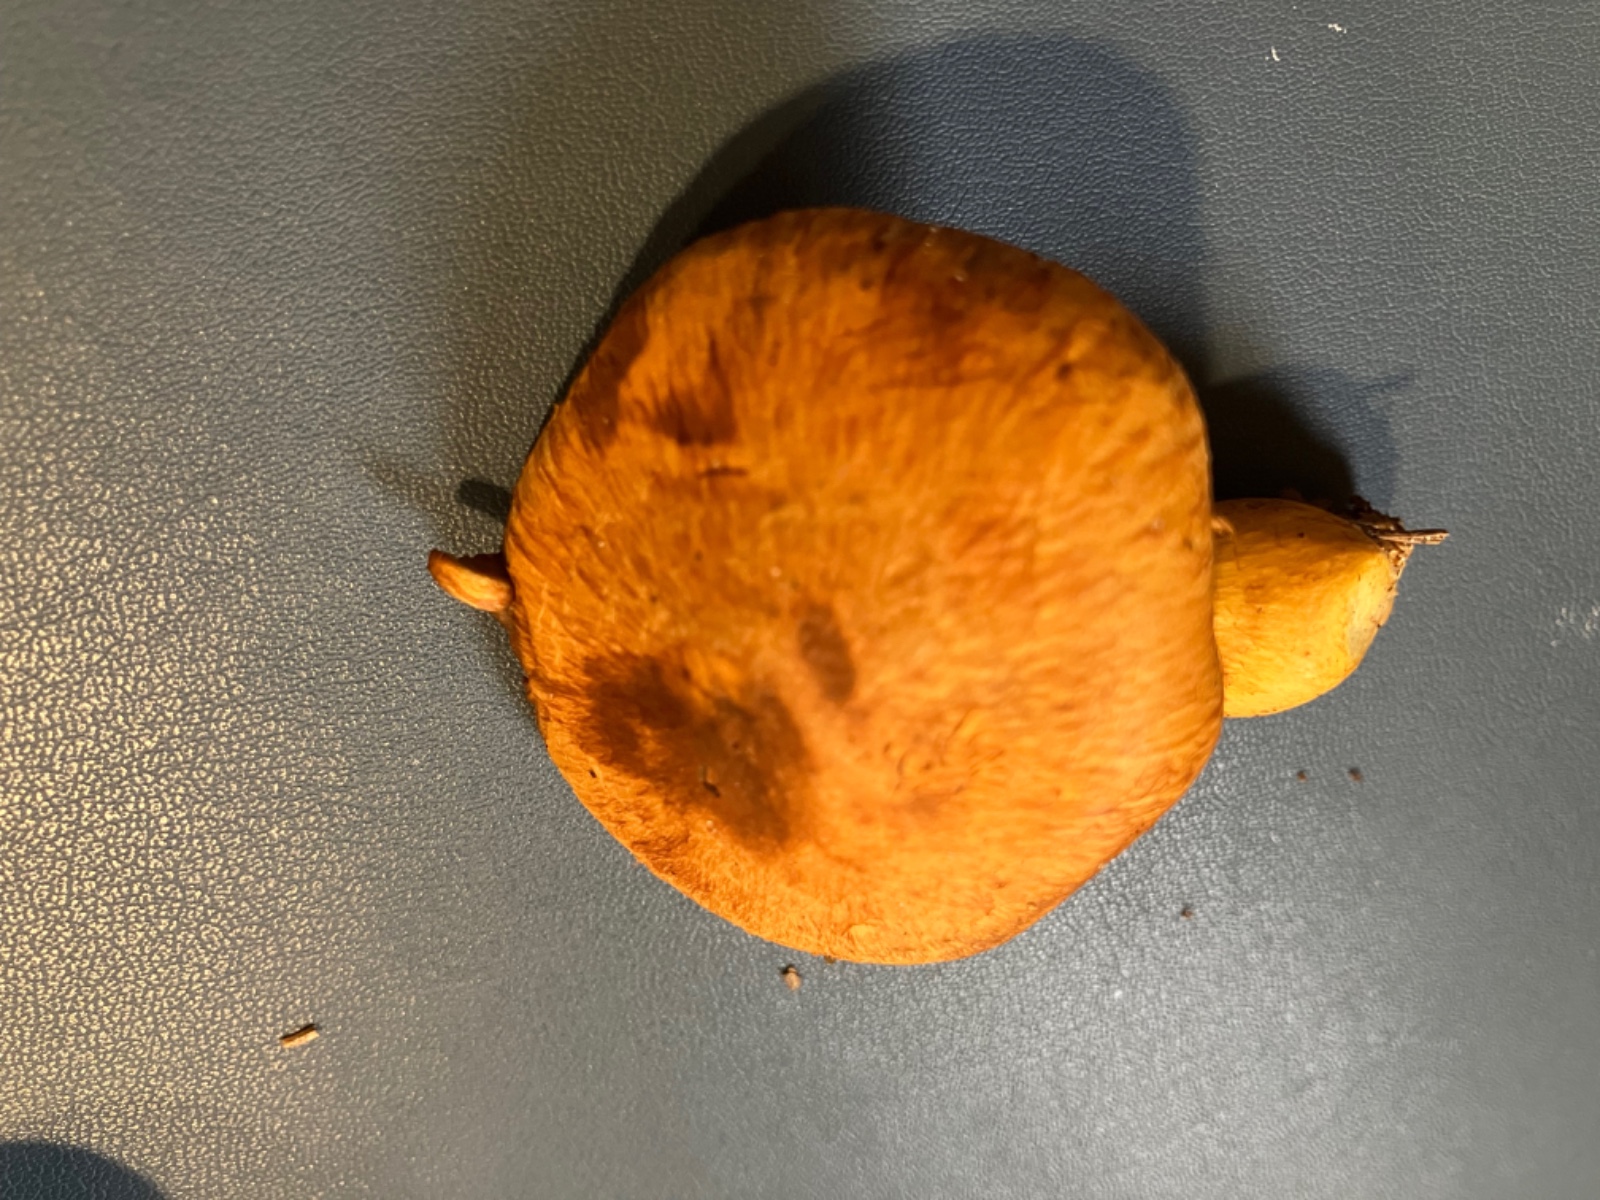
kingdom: Fungi
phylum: Basidiomycota
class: Agaricomycetes
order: Agaricales
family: Hymenogastraceae
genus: Gymnopilus
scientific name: Gymnopilus spectabilis
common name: fibret flammehat
